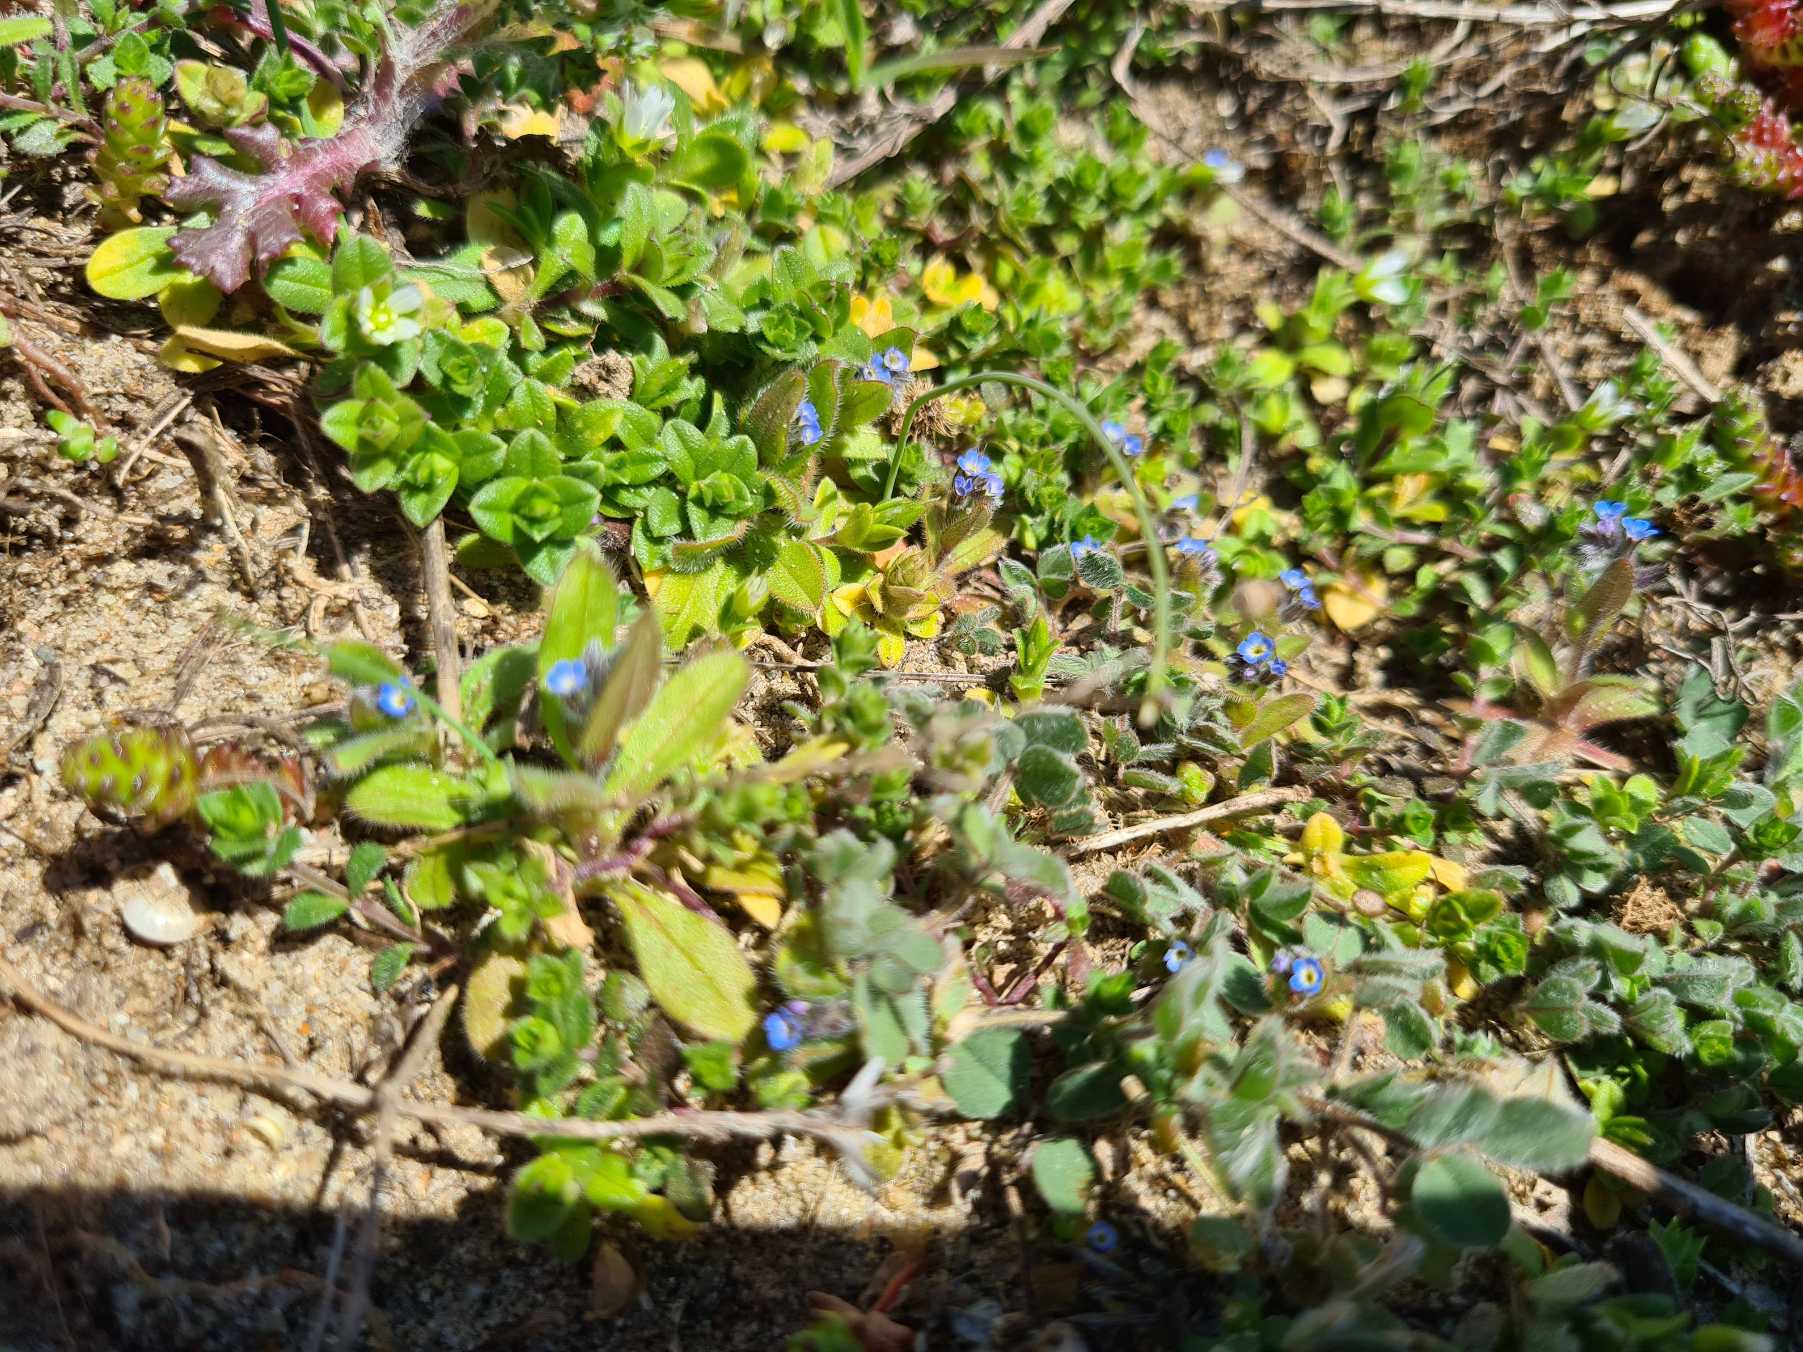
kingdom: Plantae
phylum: Tracheophyta
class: Magnoliopsida
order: Boraginales
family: Boraginaceae
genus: Myosotis
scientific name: Myosotis ramosissima
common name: Bakke-forglemmigej
